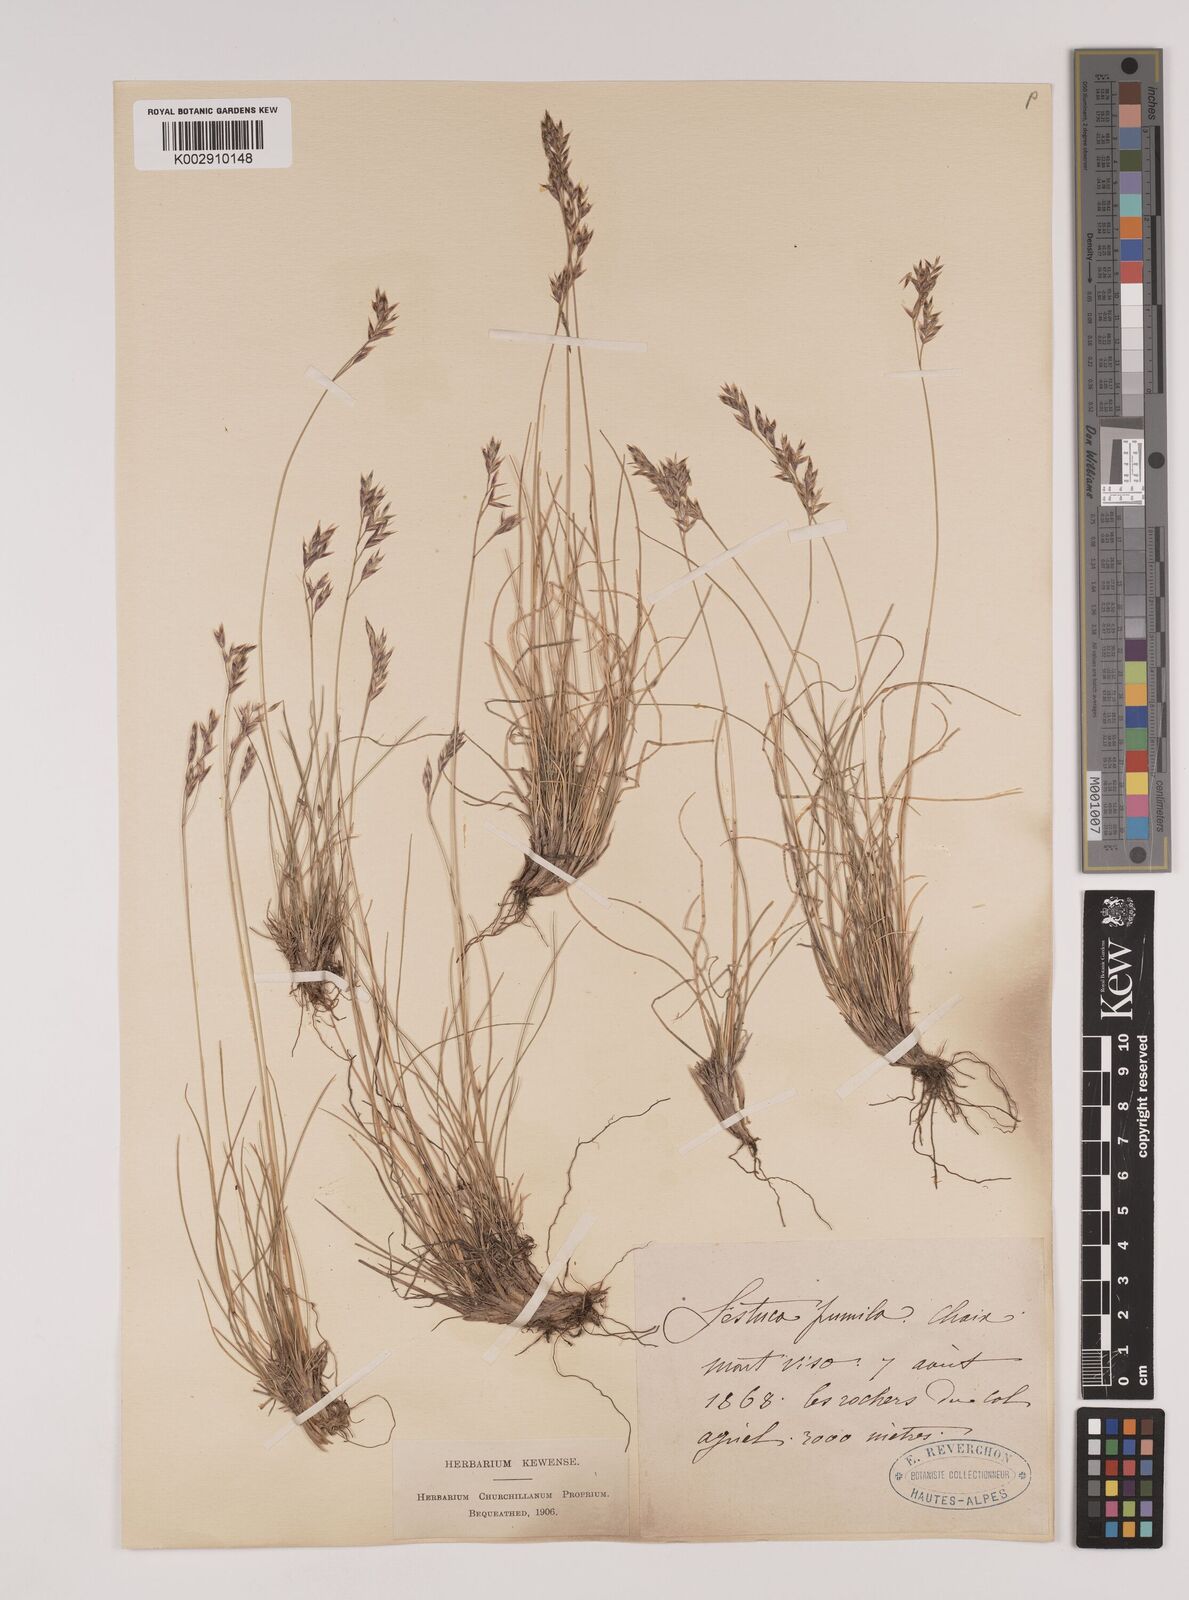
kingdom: Plantae
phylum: Tracheophyta
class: Liliopsida
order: Poales
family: Poaceae
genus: Festuca
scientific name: Festuca
